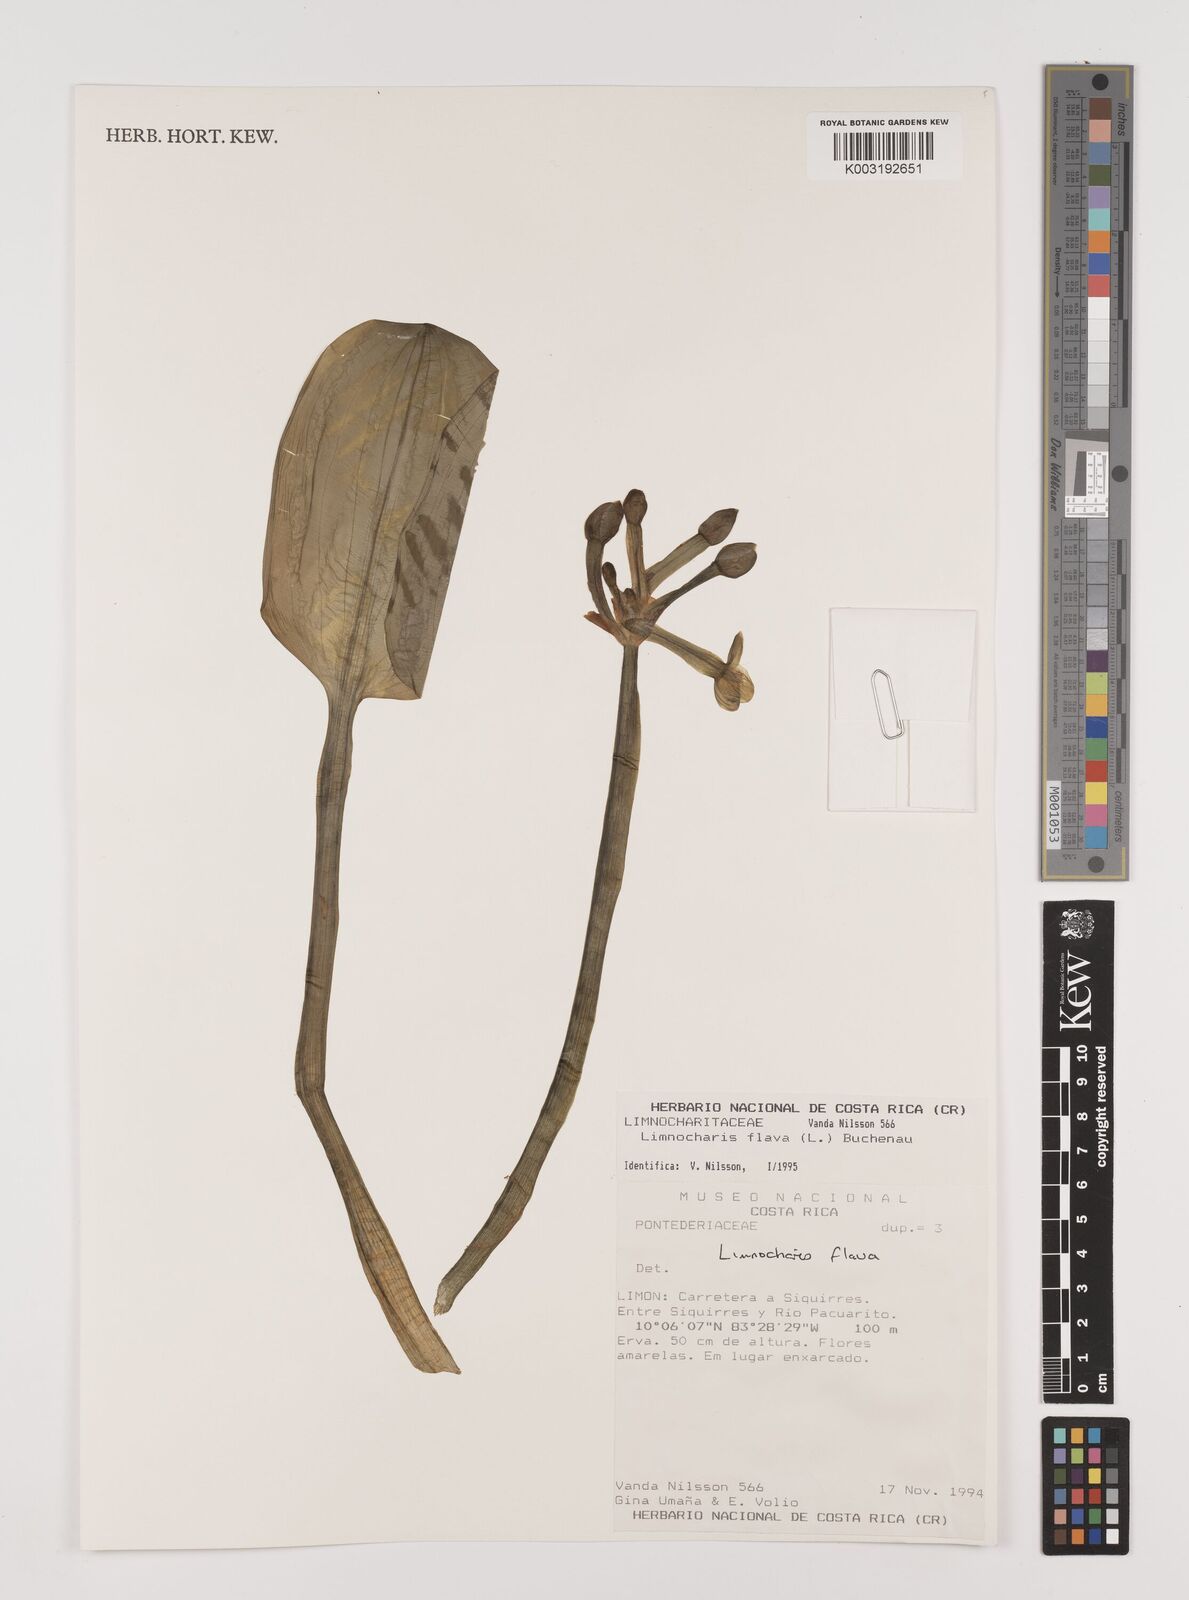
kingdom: Plantae
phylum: Tracheophyta
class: Liliopsida
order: Alismatales
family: Alismataceae
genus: Limnocharis
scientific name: Limnocharis flava
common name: Sawah-flower-rush
